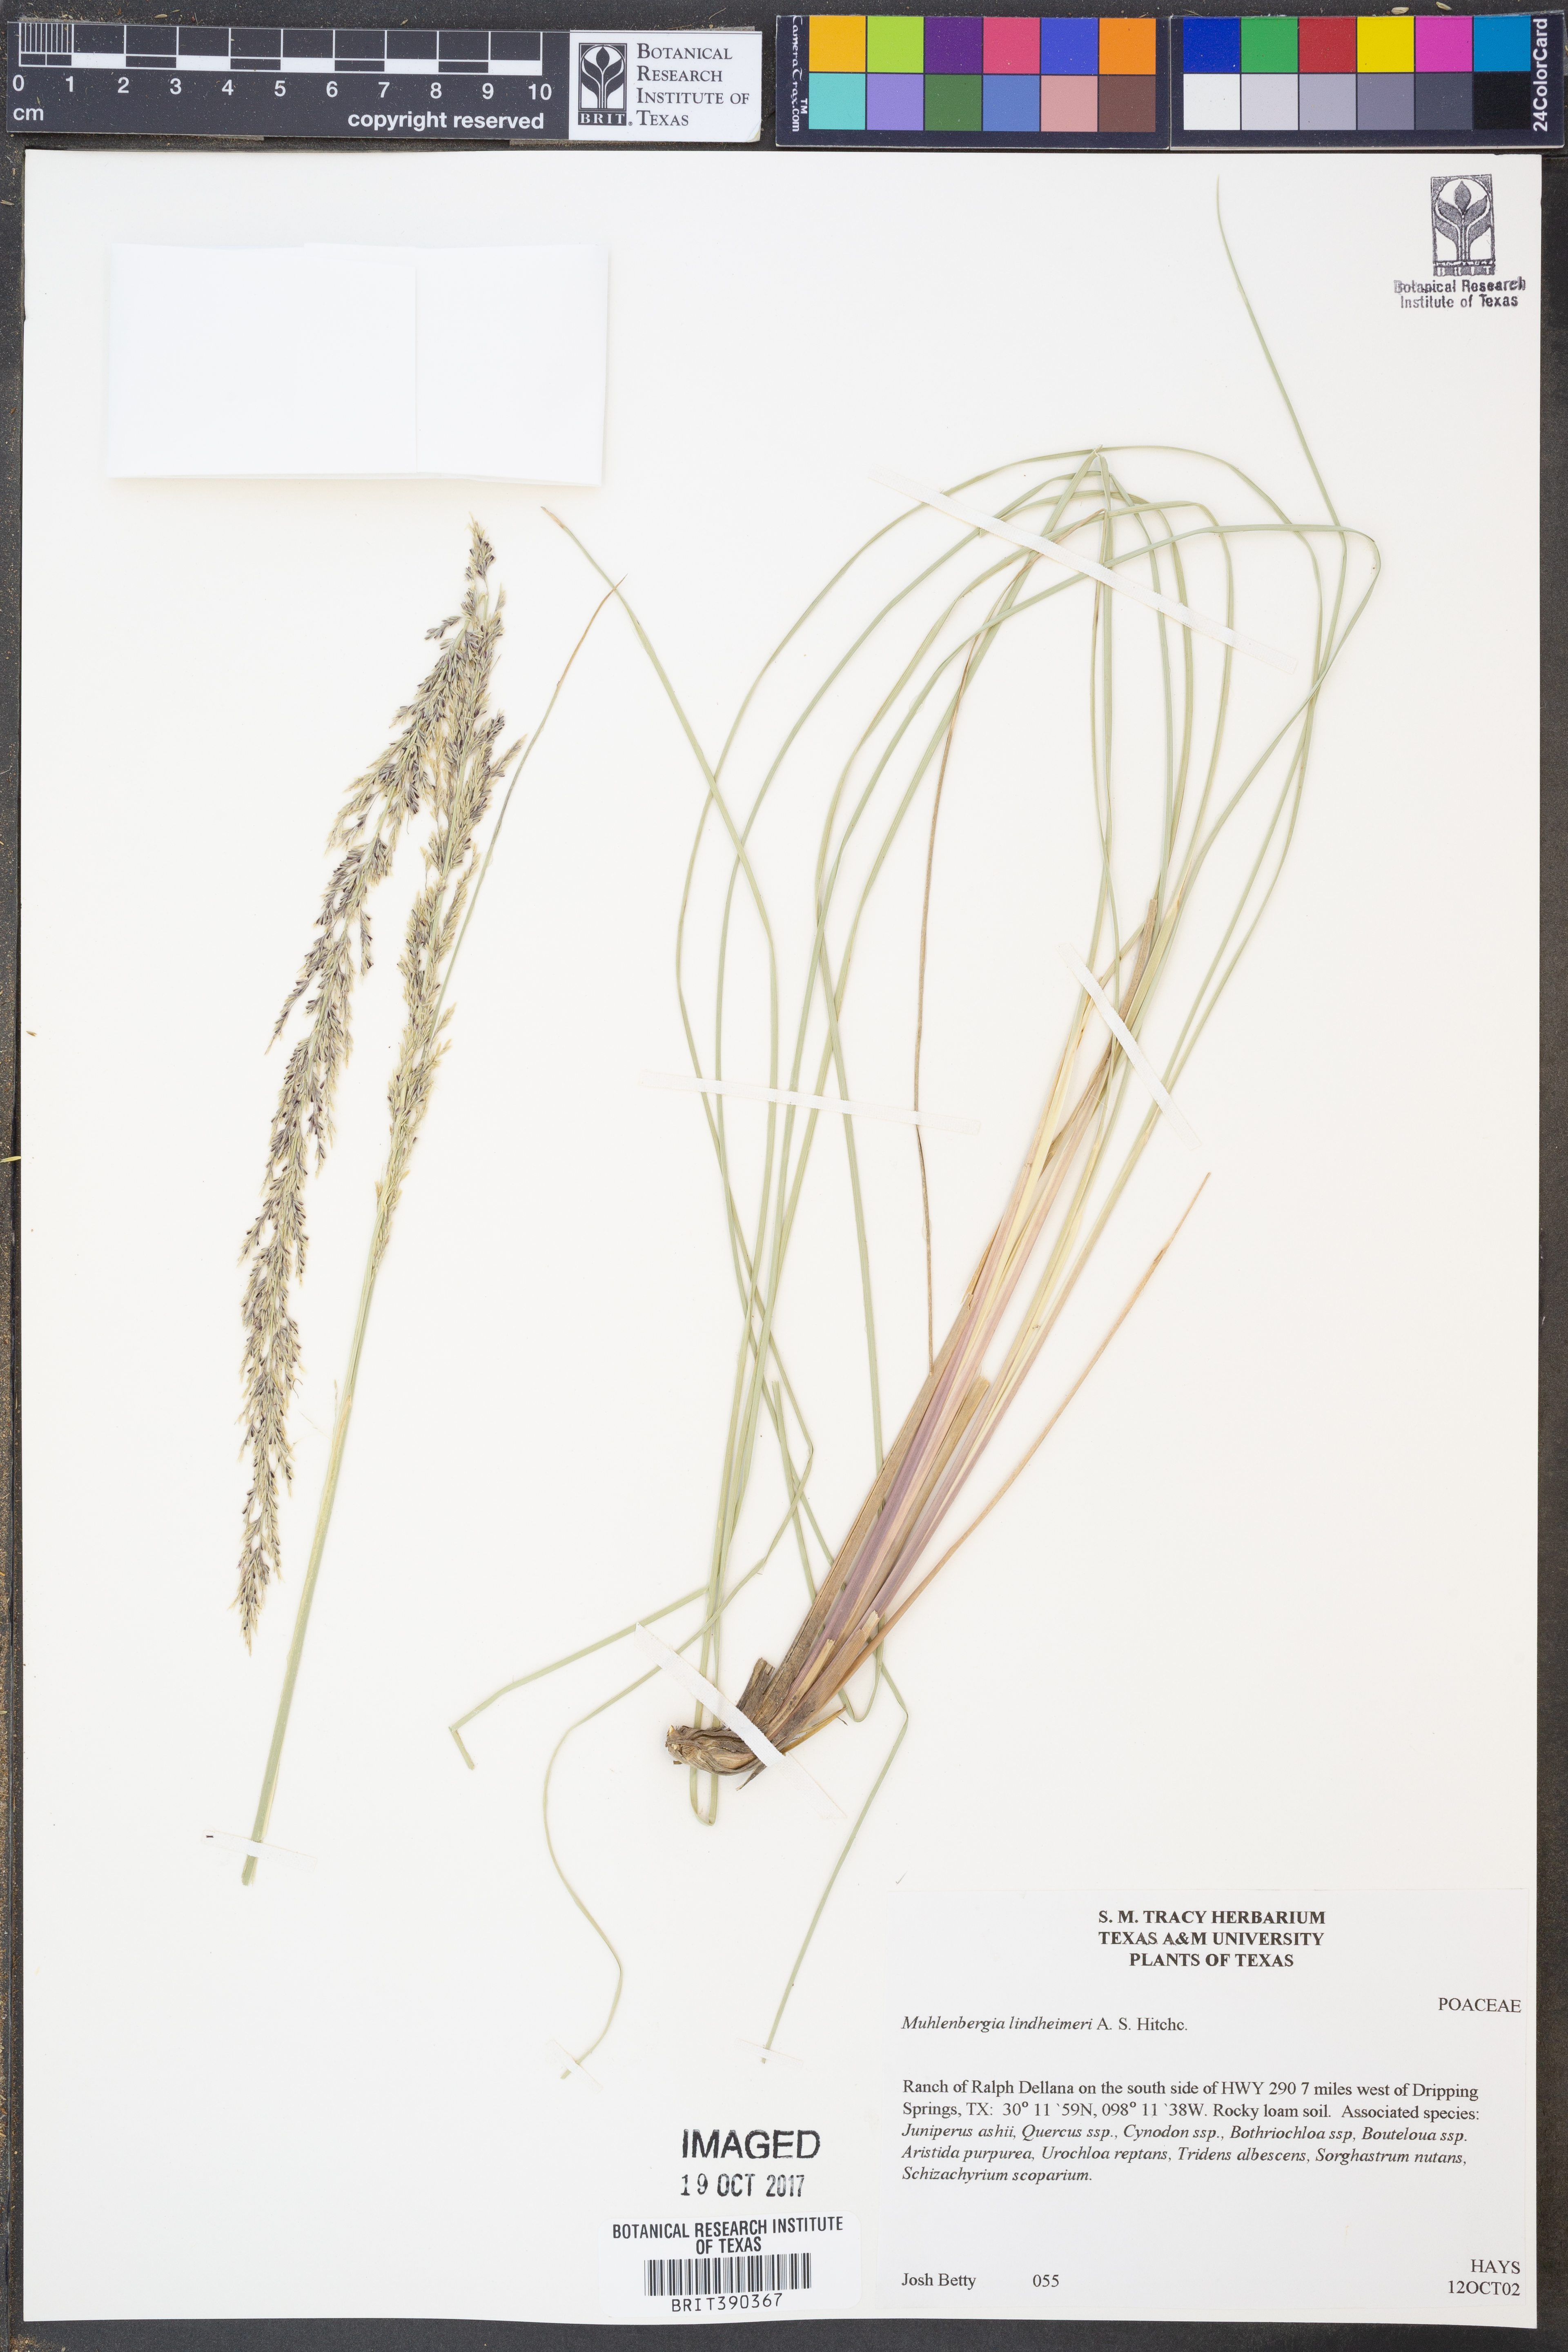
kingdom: Plantae
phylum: Tracheophyta
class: Liliopsida
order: Poales
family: Poaceae
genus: Muhlenbergia
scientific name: Muhlenbergia lindheimeri
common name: Lindheimer's muhly
